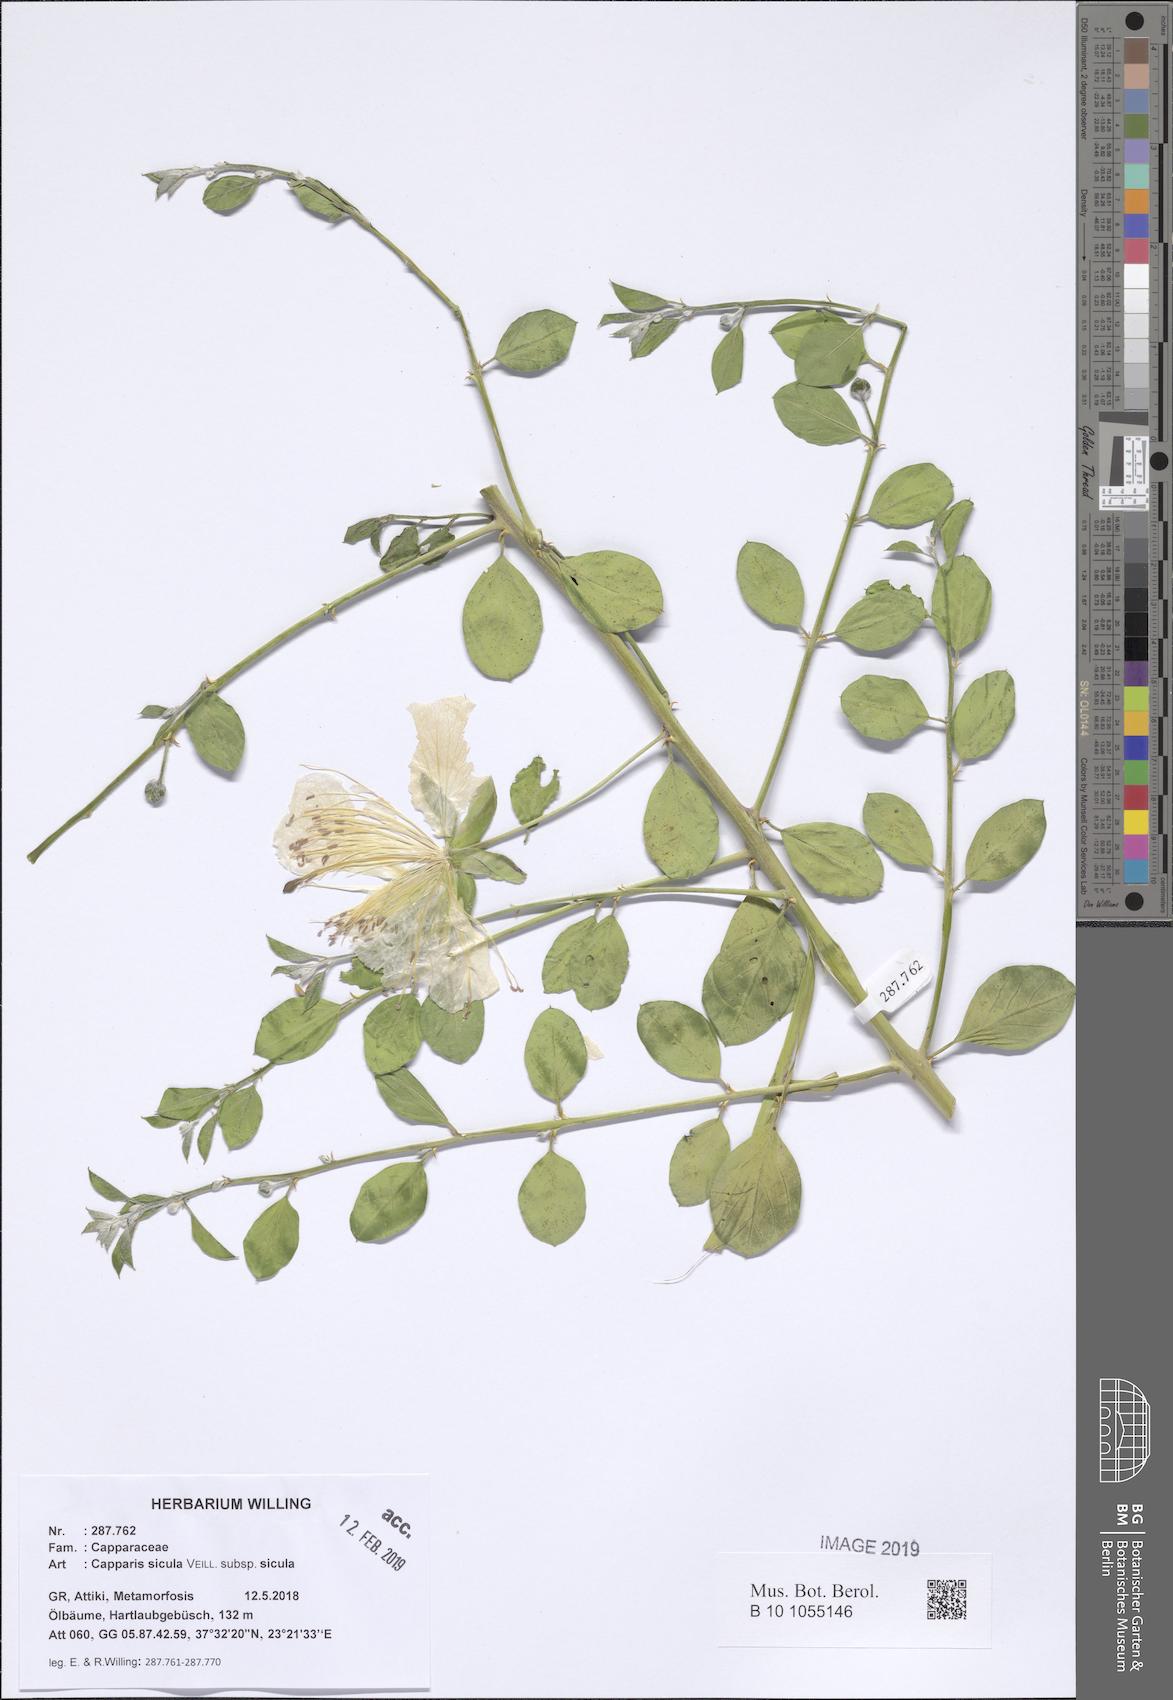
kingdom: Plantae
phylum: Tracheophyta
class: Magnoliopsida
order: Brassicales
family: Capparaceae
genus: Capparis
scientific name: Capparis spinosa
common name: Caper
